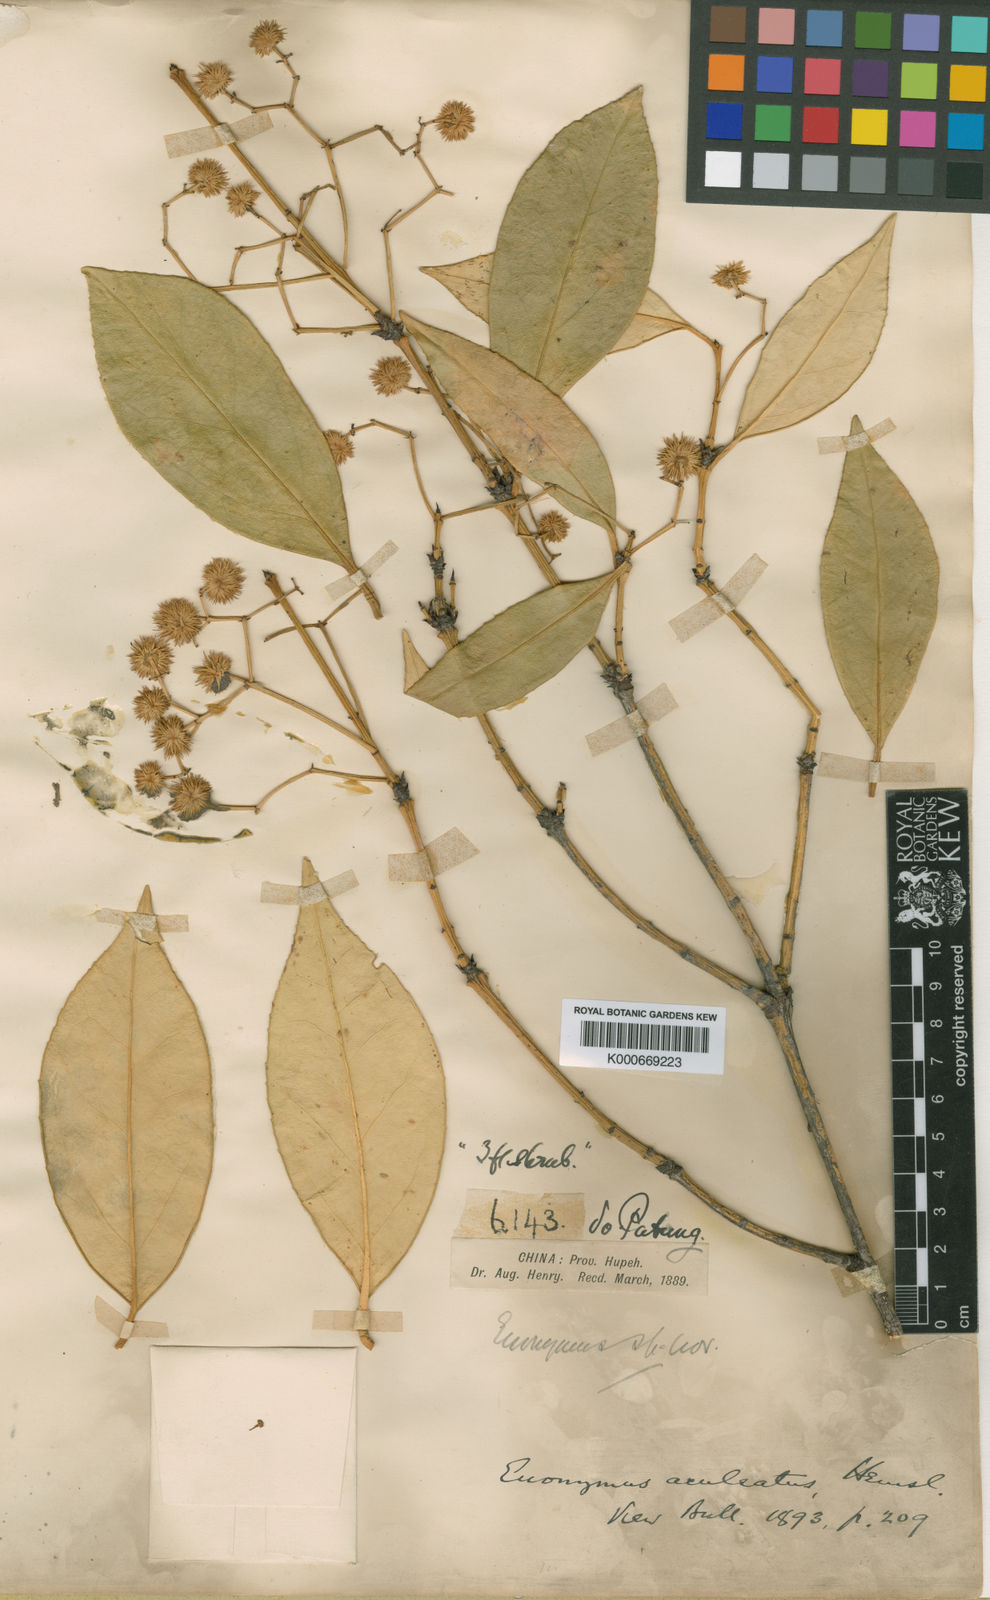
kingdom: Plantae
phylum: Tracheophyta
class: Magnoliopsida
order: Celastrales
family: Celastraceae
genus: Euonymus
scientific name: Euonymus aculeatus
